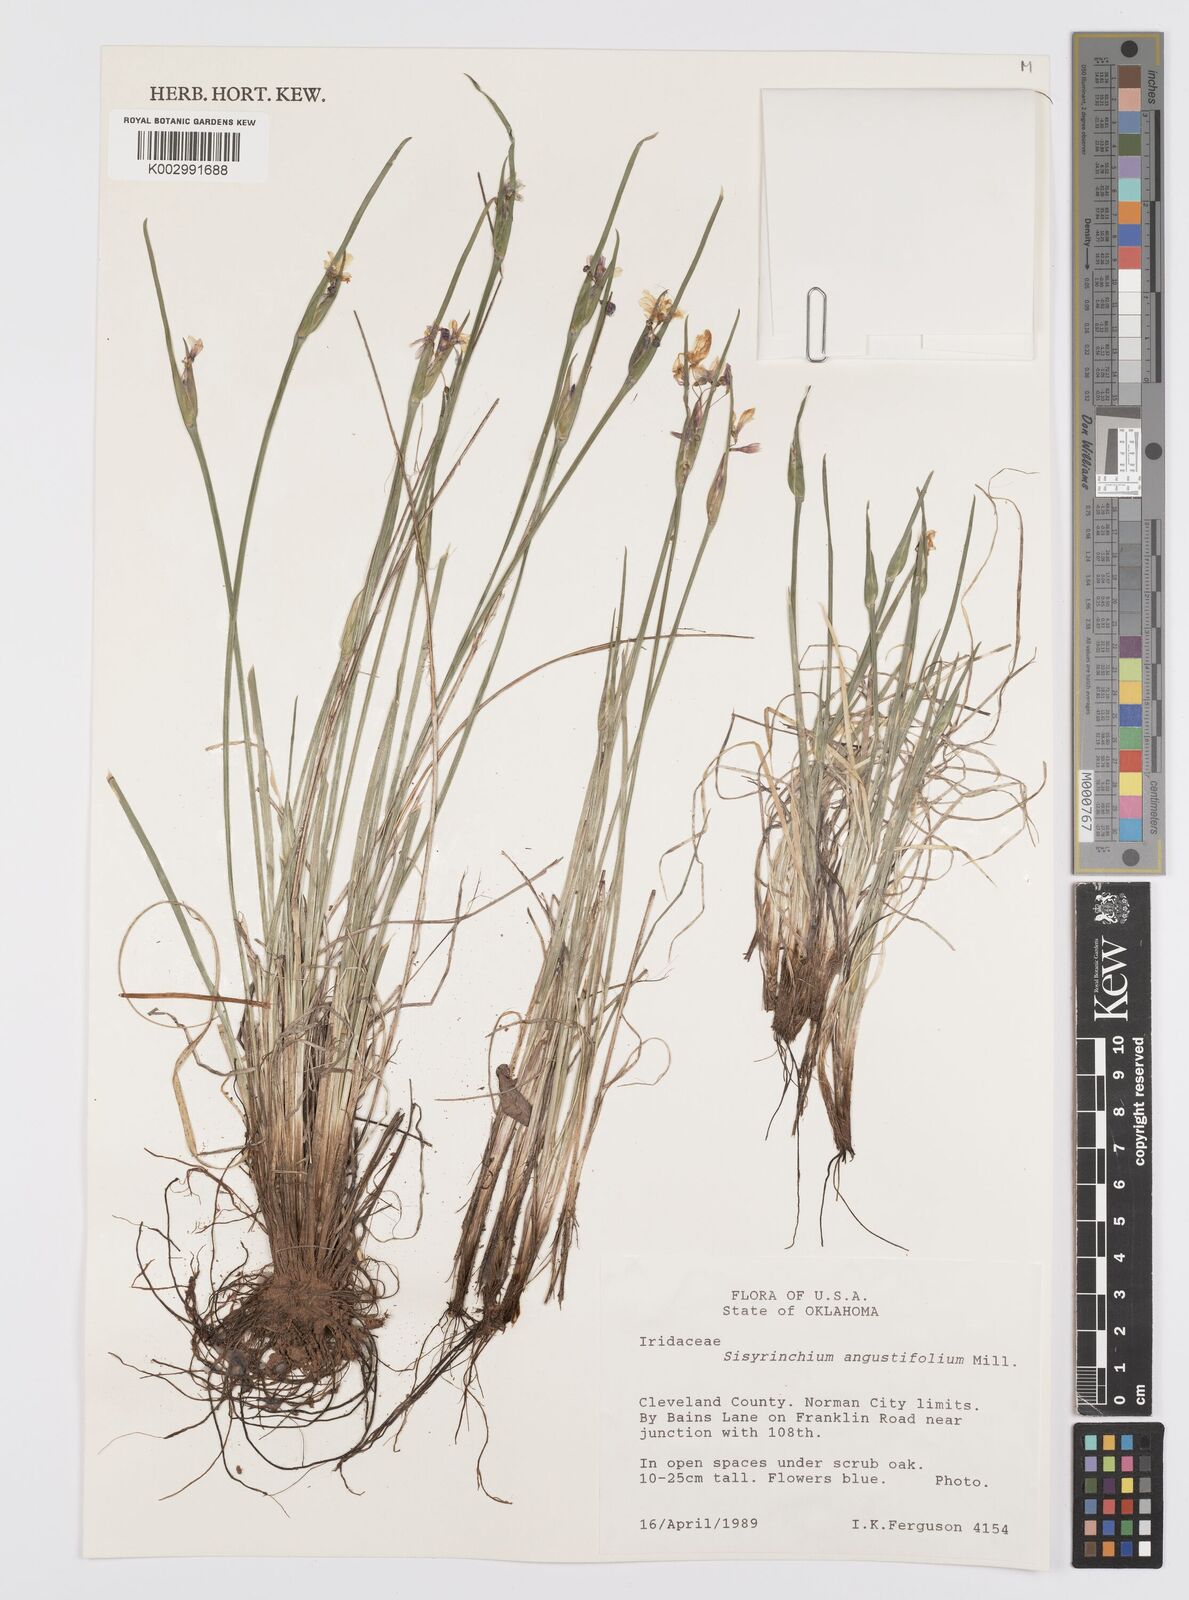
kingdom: Plantae
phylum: Tracheophyta
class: Liliopsida
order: Asparagales
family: Iridaceae
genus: Sisyrinchium
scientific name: Sisyrinchium angustifolium
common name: Narrow-leaf blue-eyed-grass
